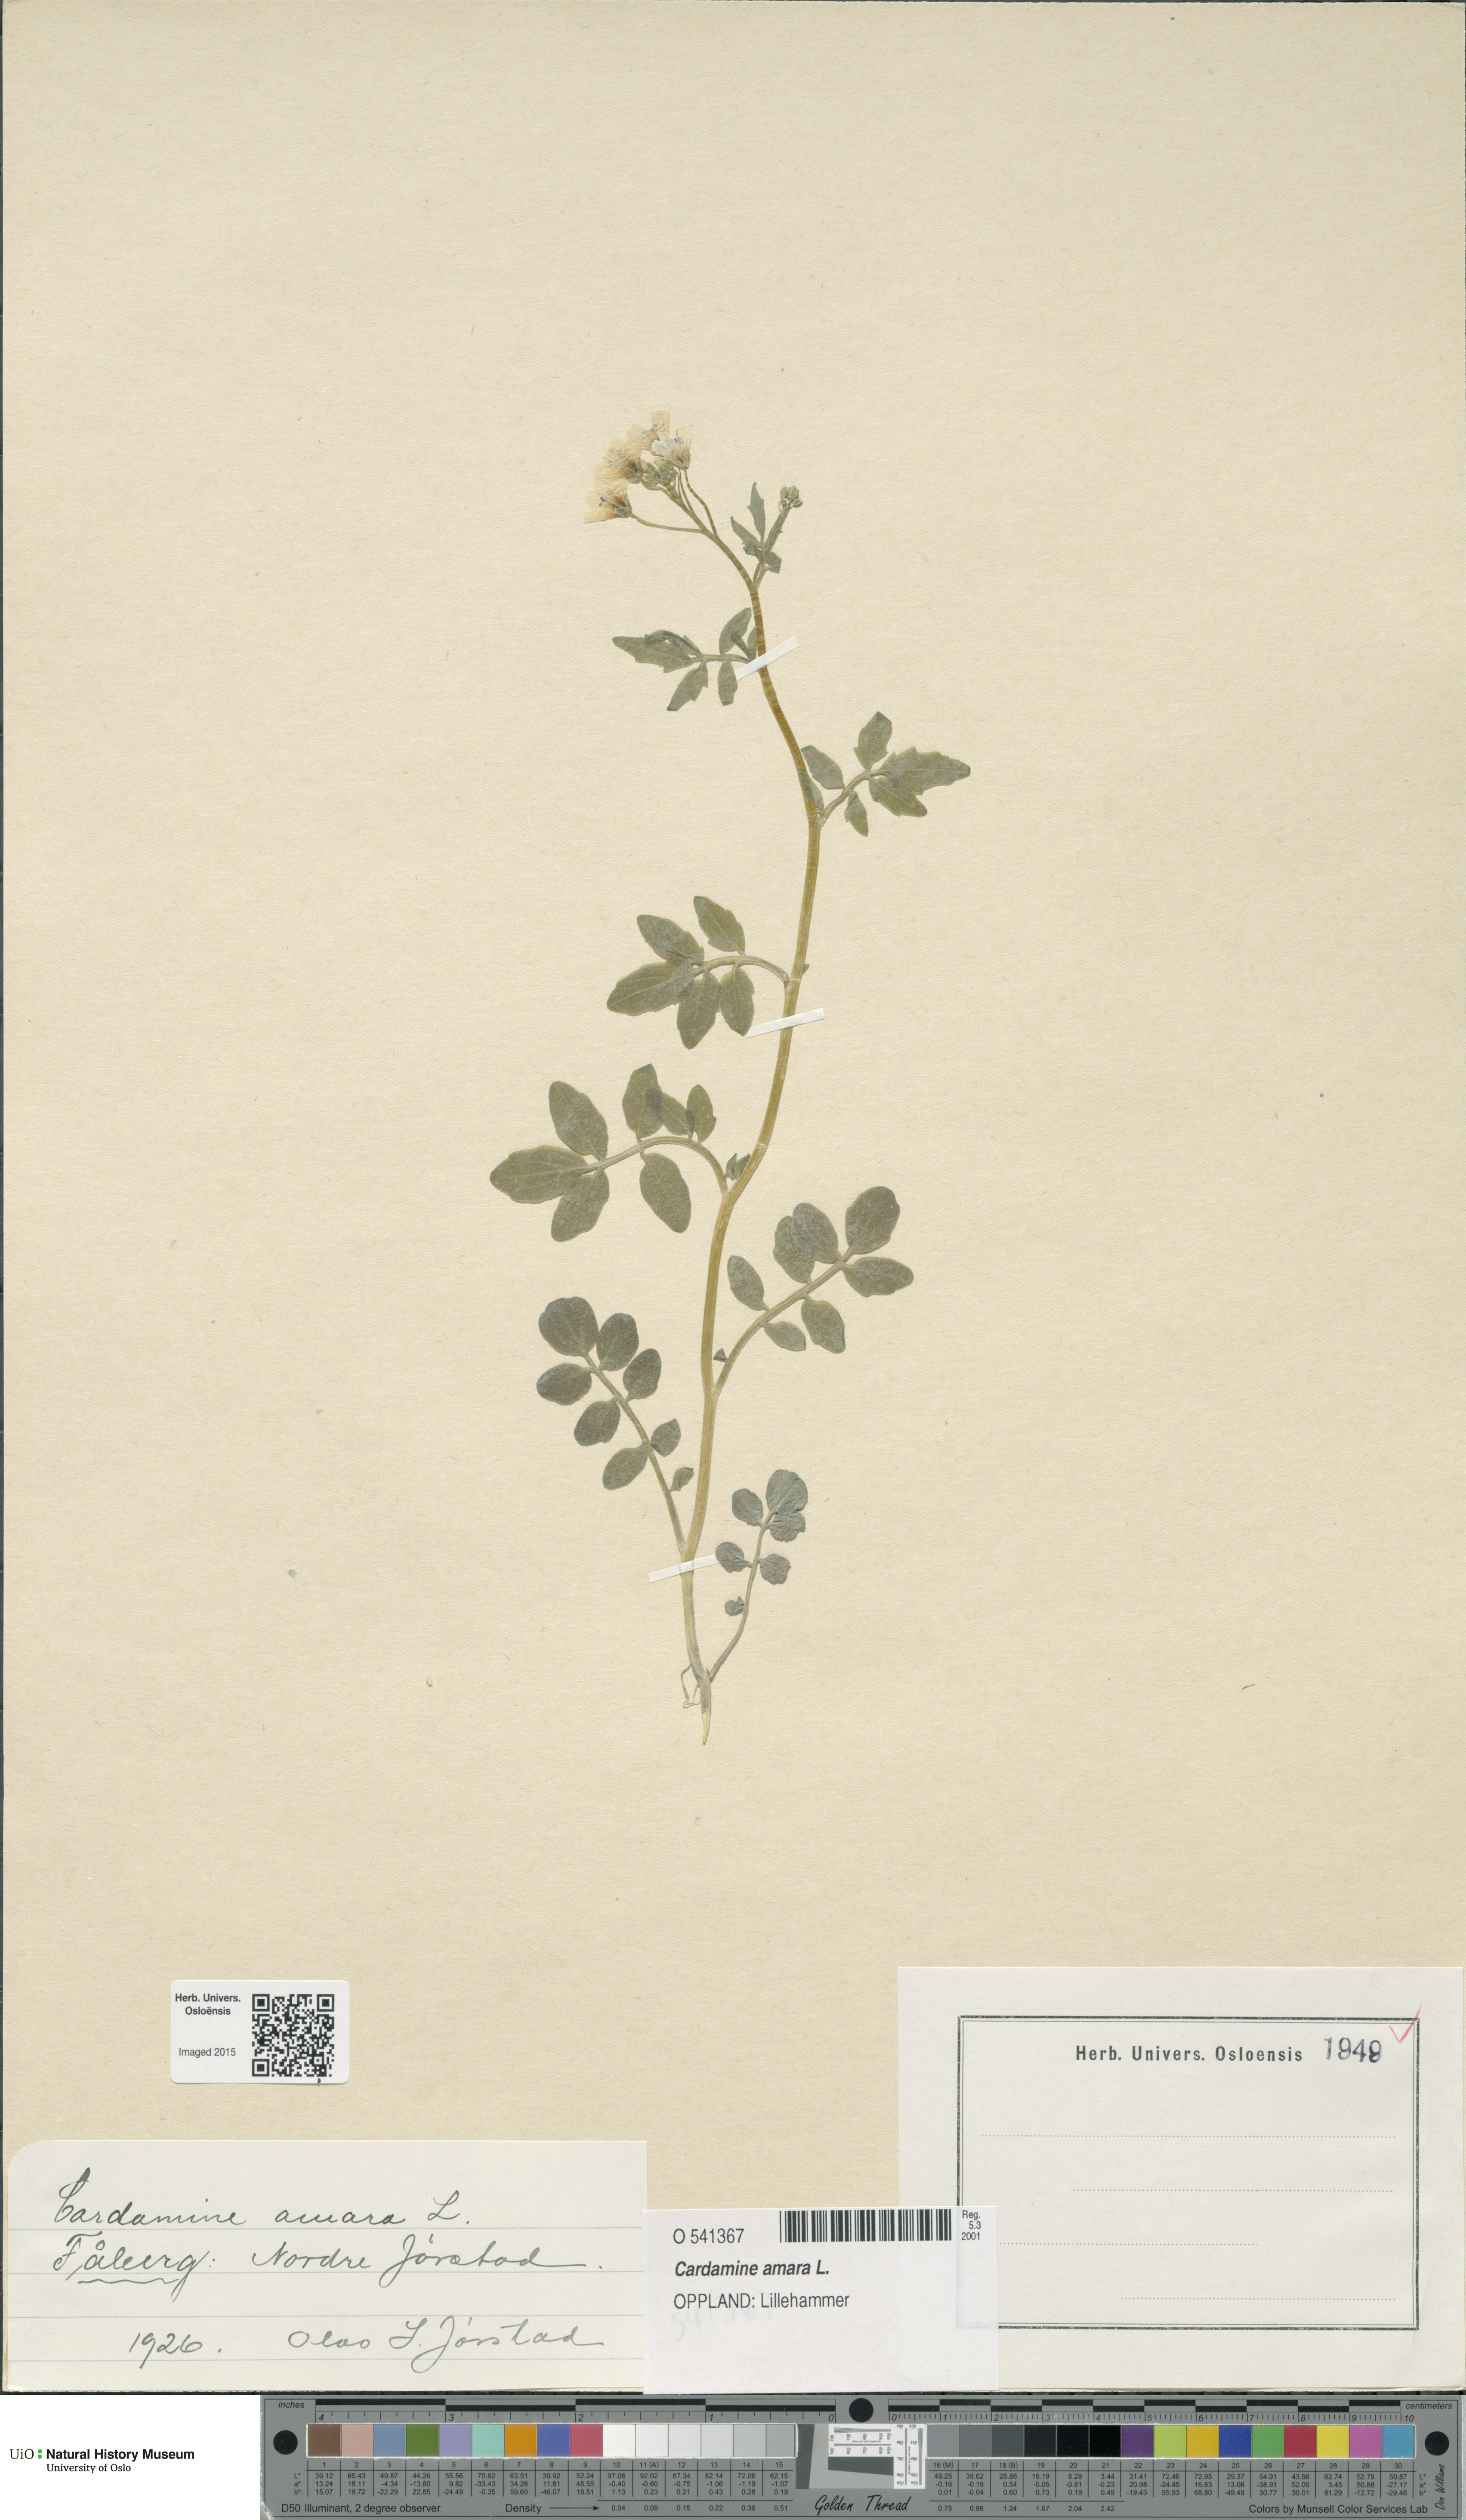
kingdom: Plantae
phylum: Tracheophyta
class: Magnoliopsida
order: Brassicales
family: Brassicaceae
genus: Cardamine
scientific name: Cardamine amara
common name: Large bitter-cress
